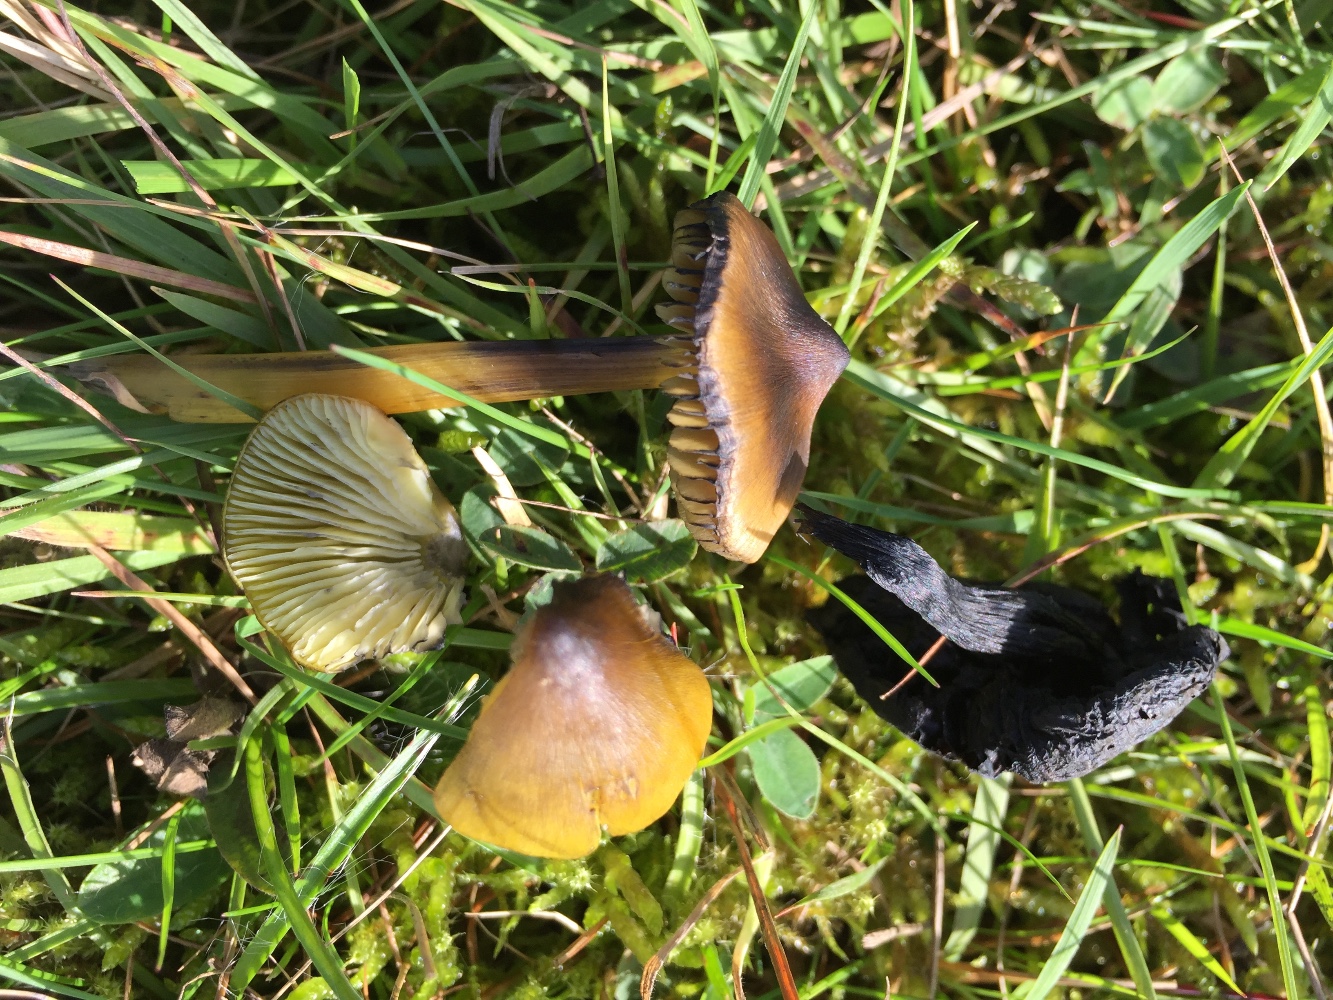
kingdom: Fungi
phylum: Basidiomycota
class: Agaricomycetes
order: Agaricales
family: Hygrophoraceae
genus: Hygrocybe
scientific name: Hygrocybe conica
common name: kegle-vokshat
